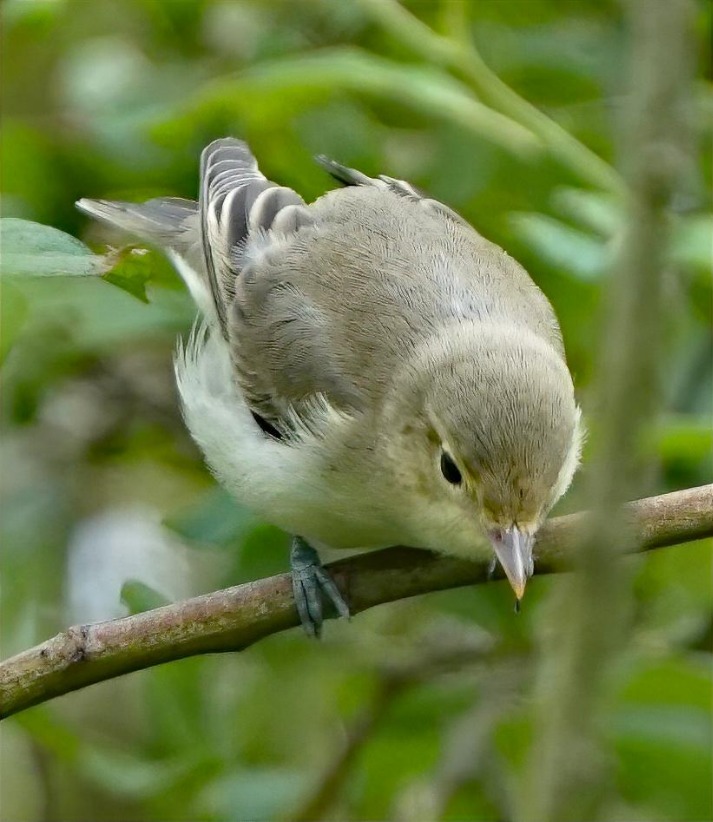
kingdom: Animalia
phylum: Chordata
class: Aves
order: Passeriformes
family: Acrocephalidae
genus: Hippolais
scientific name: Hippolais icterina
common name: Gulbug
